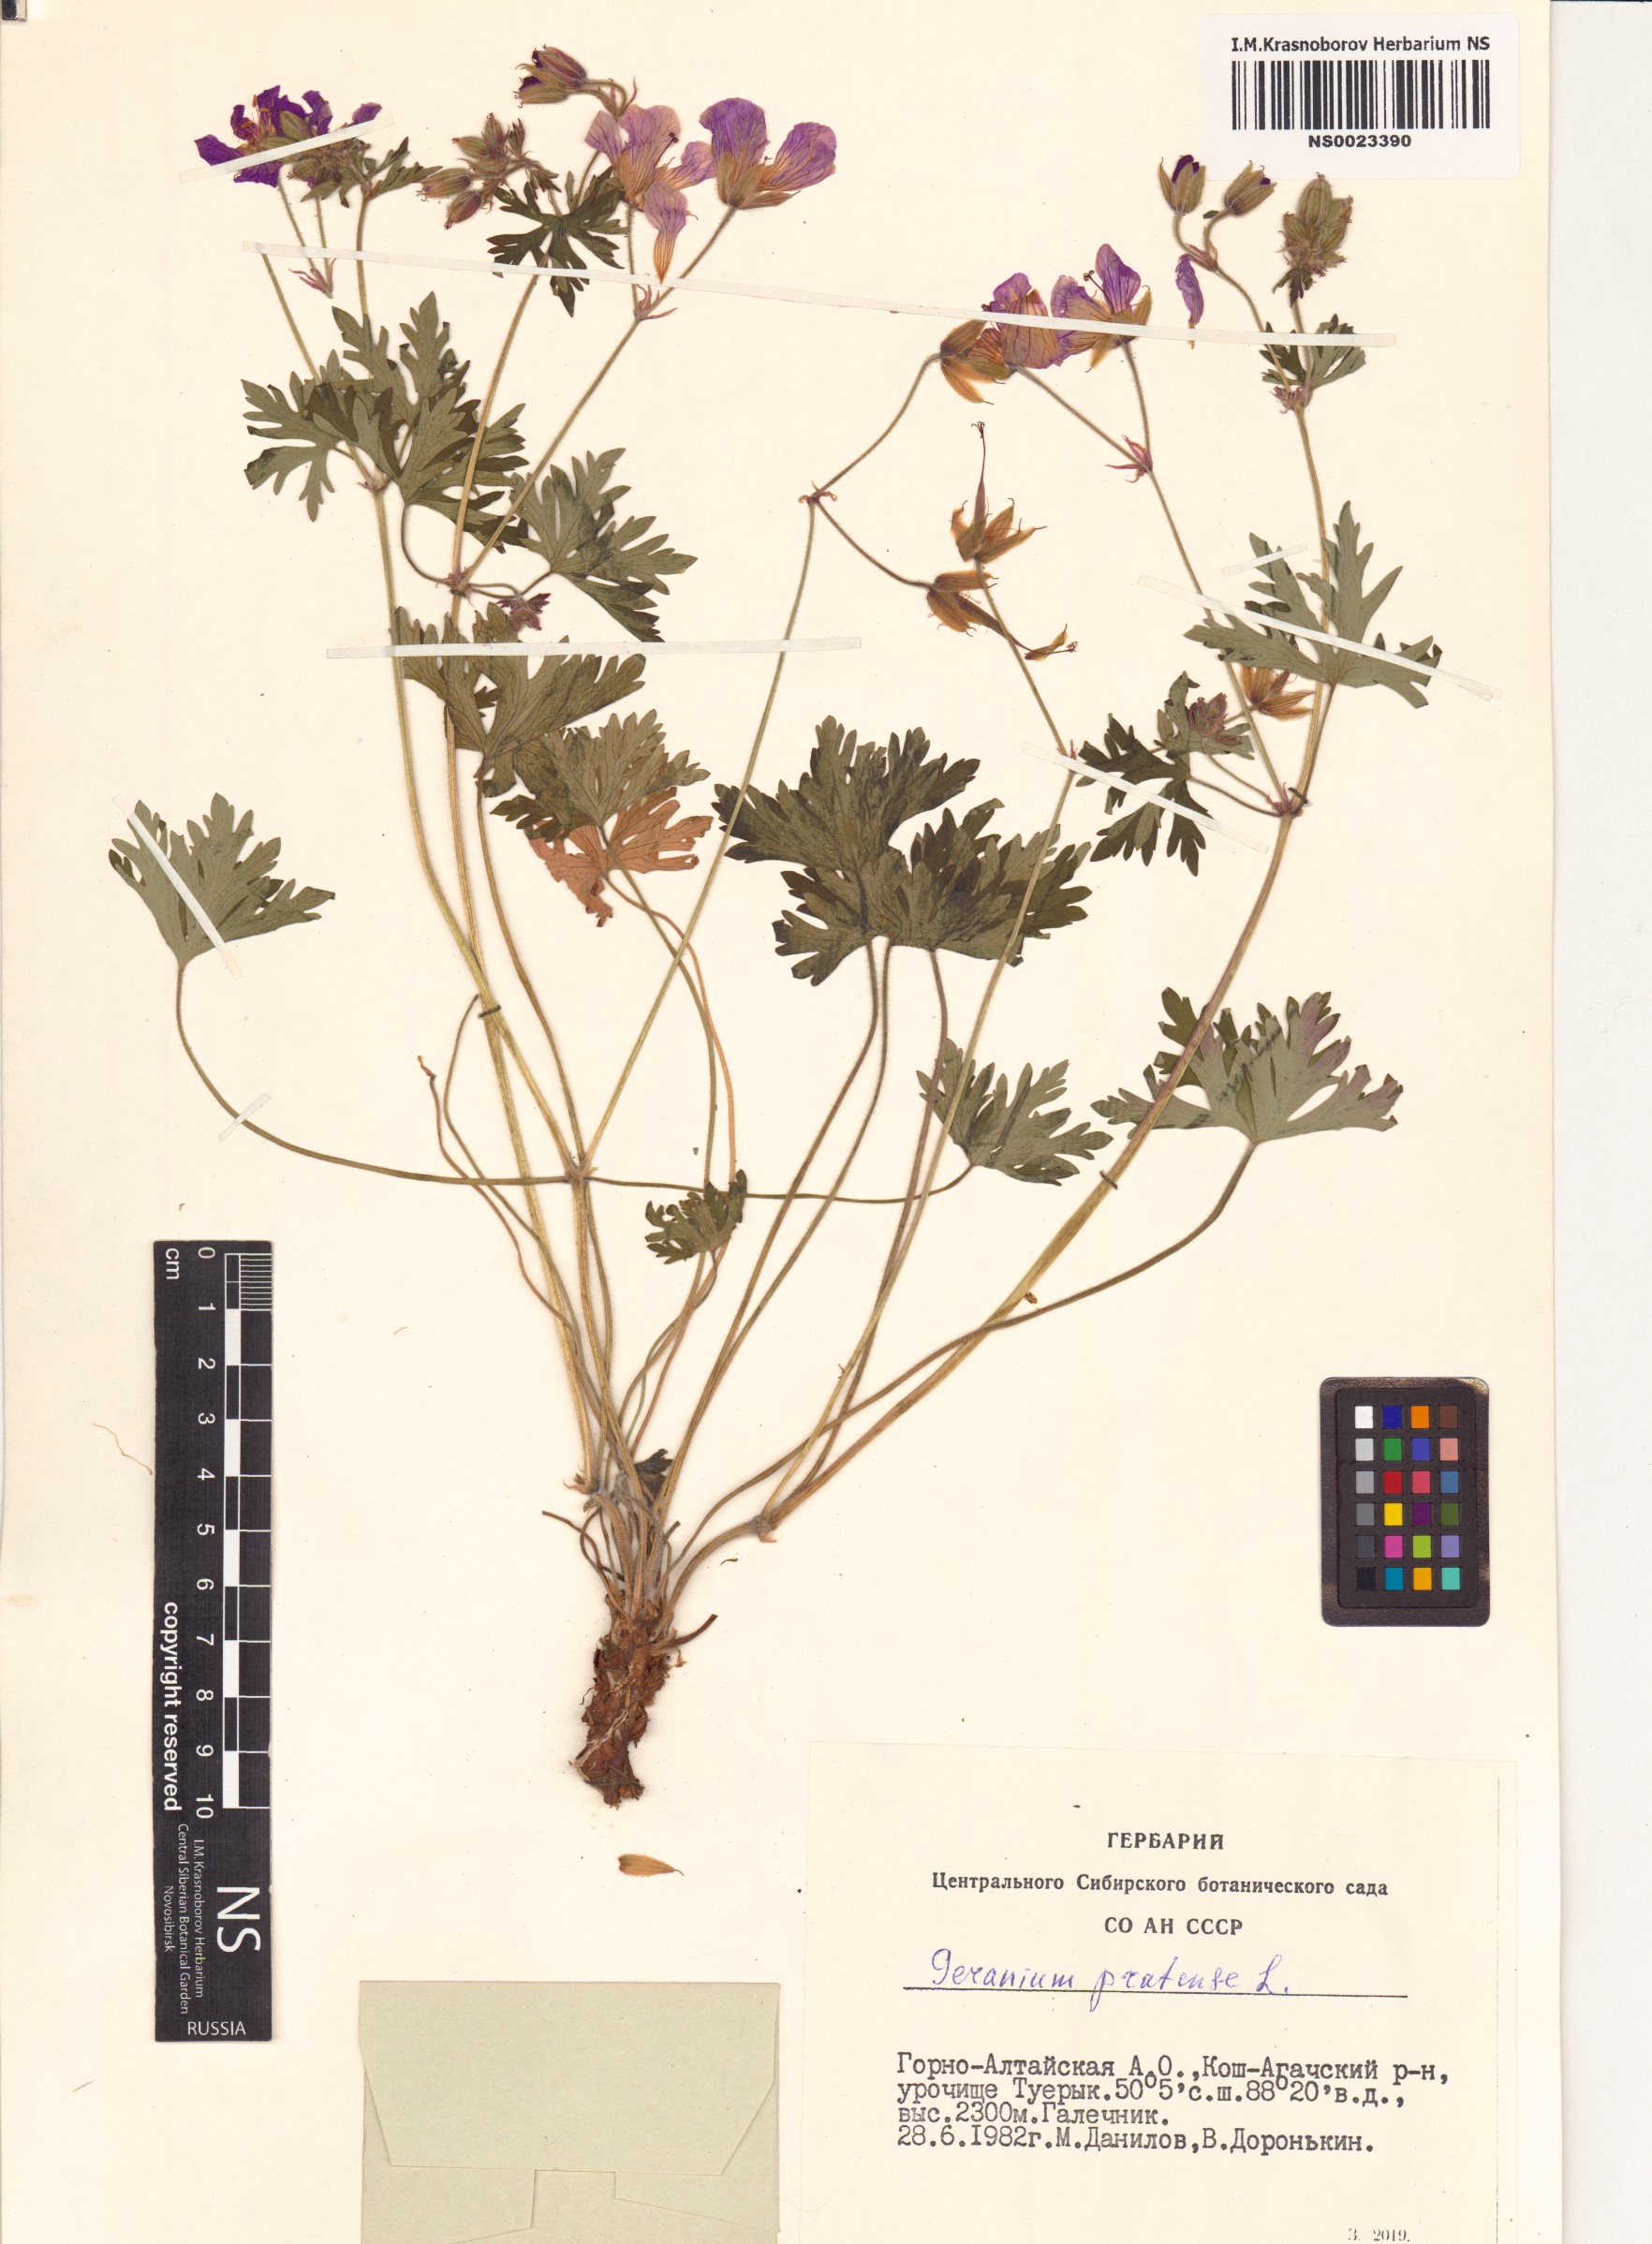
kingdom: Plantae
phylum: Tracheophyta
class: Magnoliopsida
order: Geraniales
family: Geraniaceae
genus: Geranium
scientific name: Geranium pratense
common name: Meadow crane's-bill
